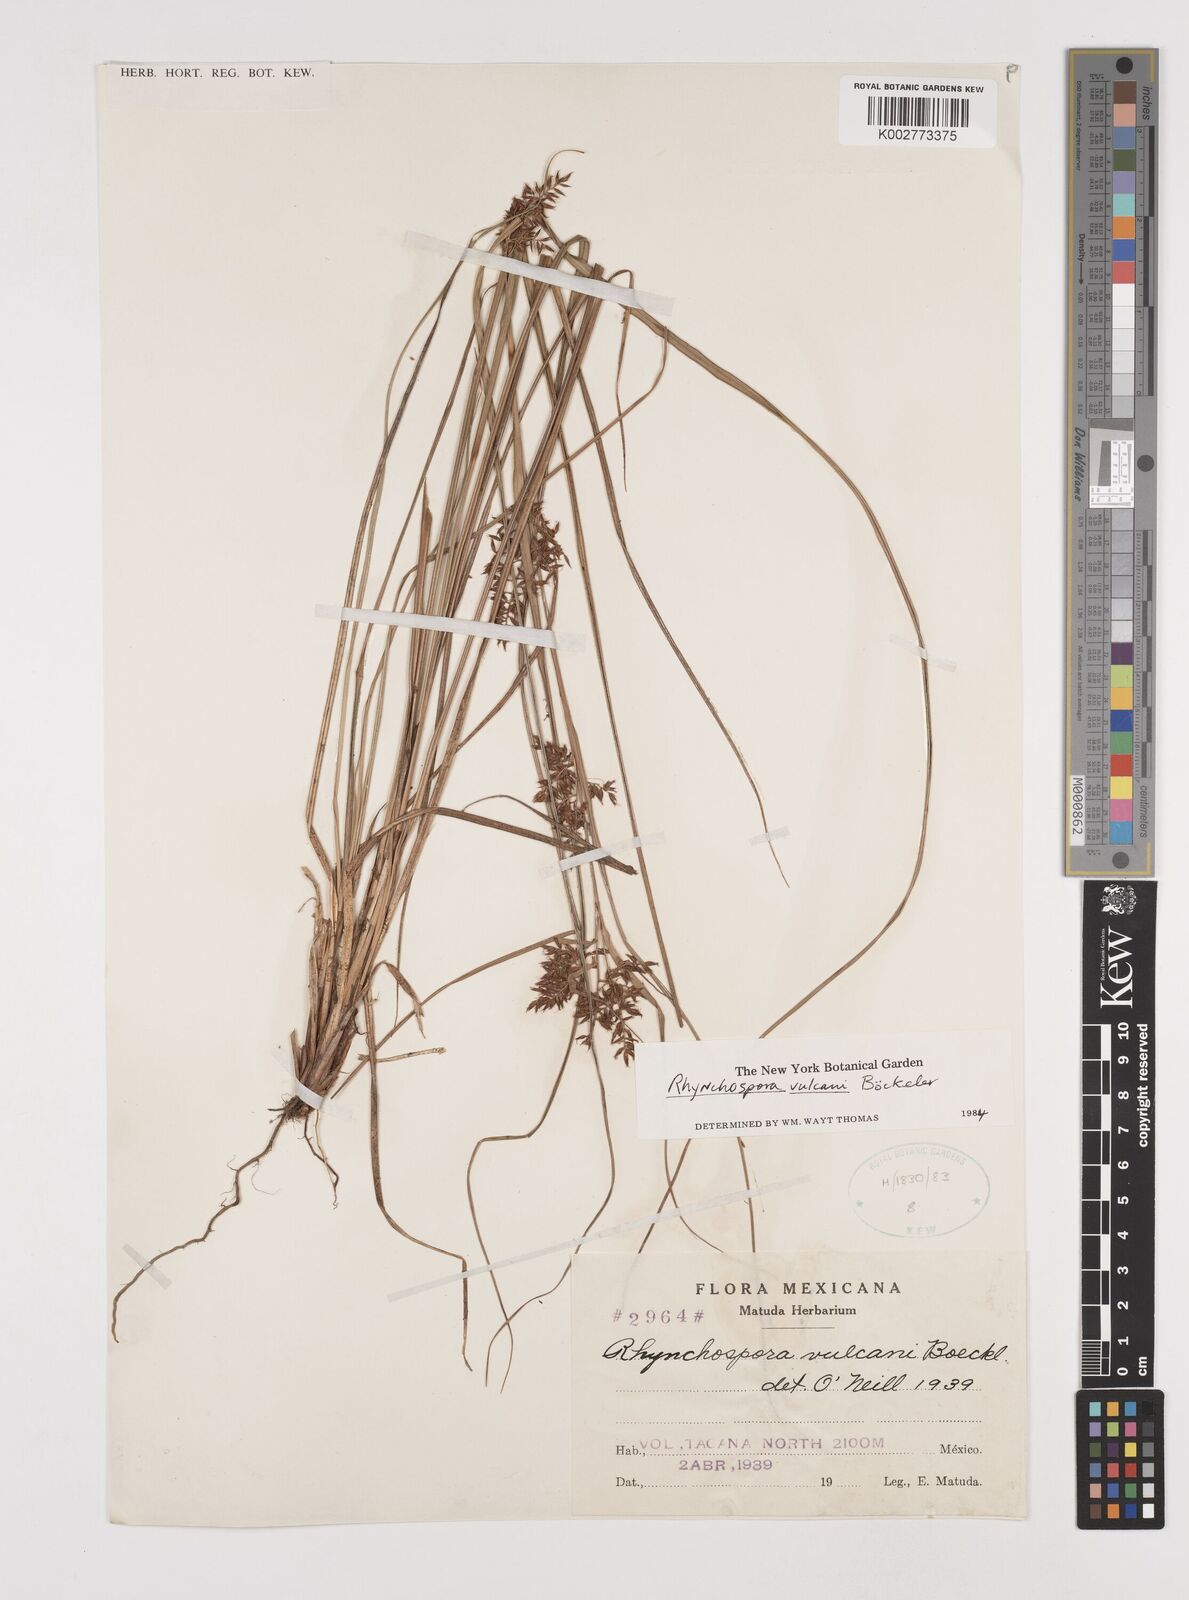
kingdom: Plantae
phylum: Tracheophyta
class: Liliopsida
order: Poales
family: Cyperaceae
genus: Rhynchospora
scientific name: Rhynchospora vulcani
